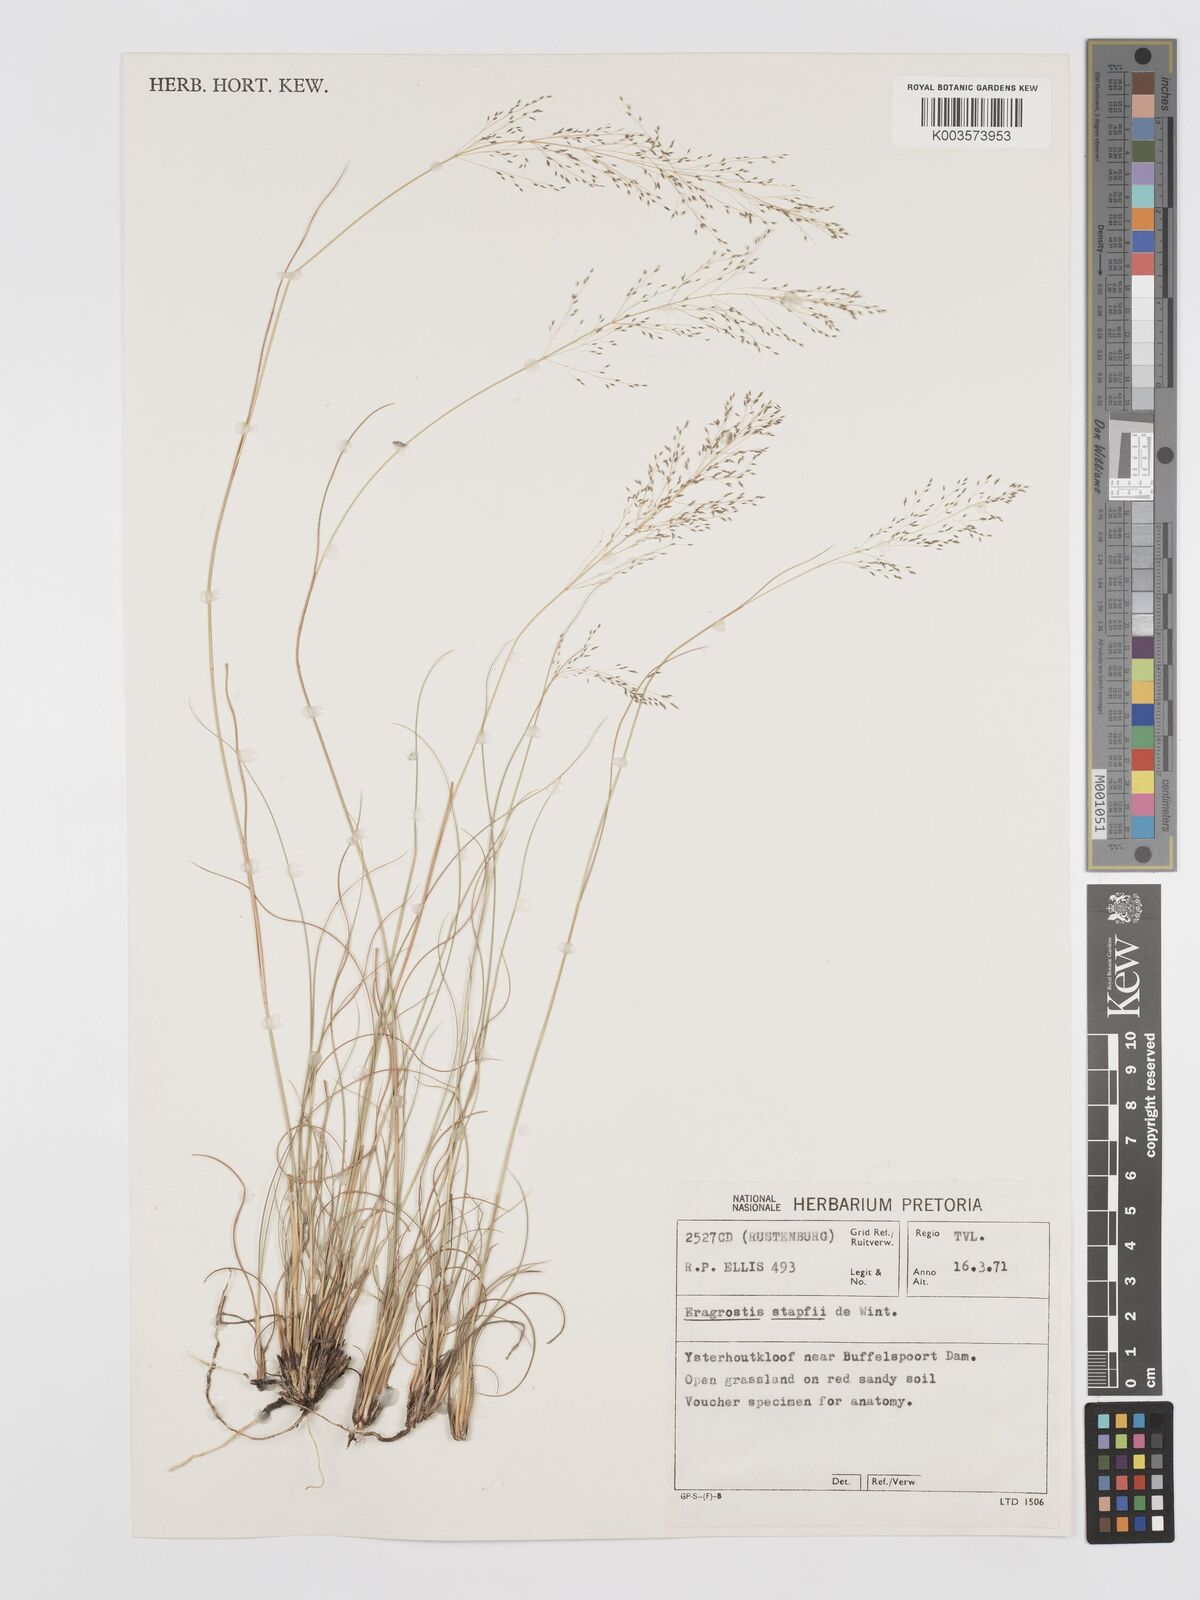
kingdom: Plantae
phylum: Tracheophyta
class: Liliopsida
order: Poales
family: Poaceae
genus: Eragrostis
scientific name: Eragrostis stapfii
